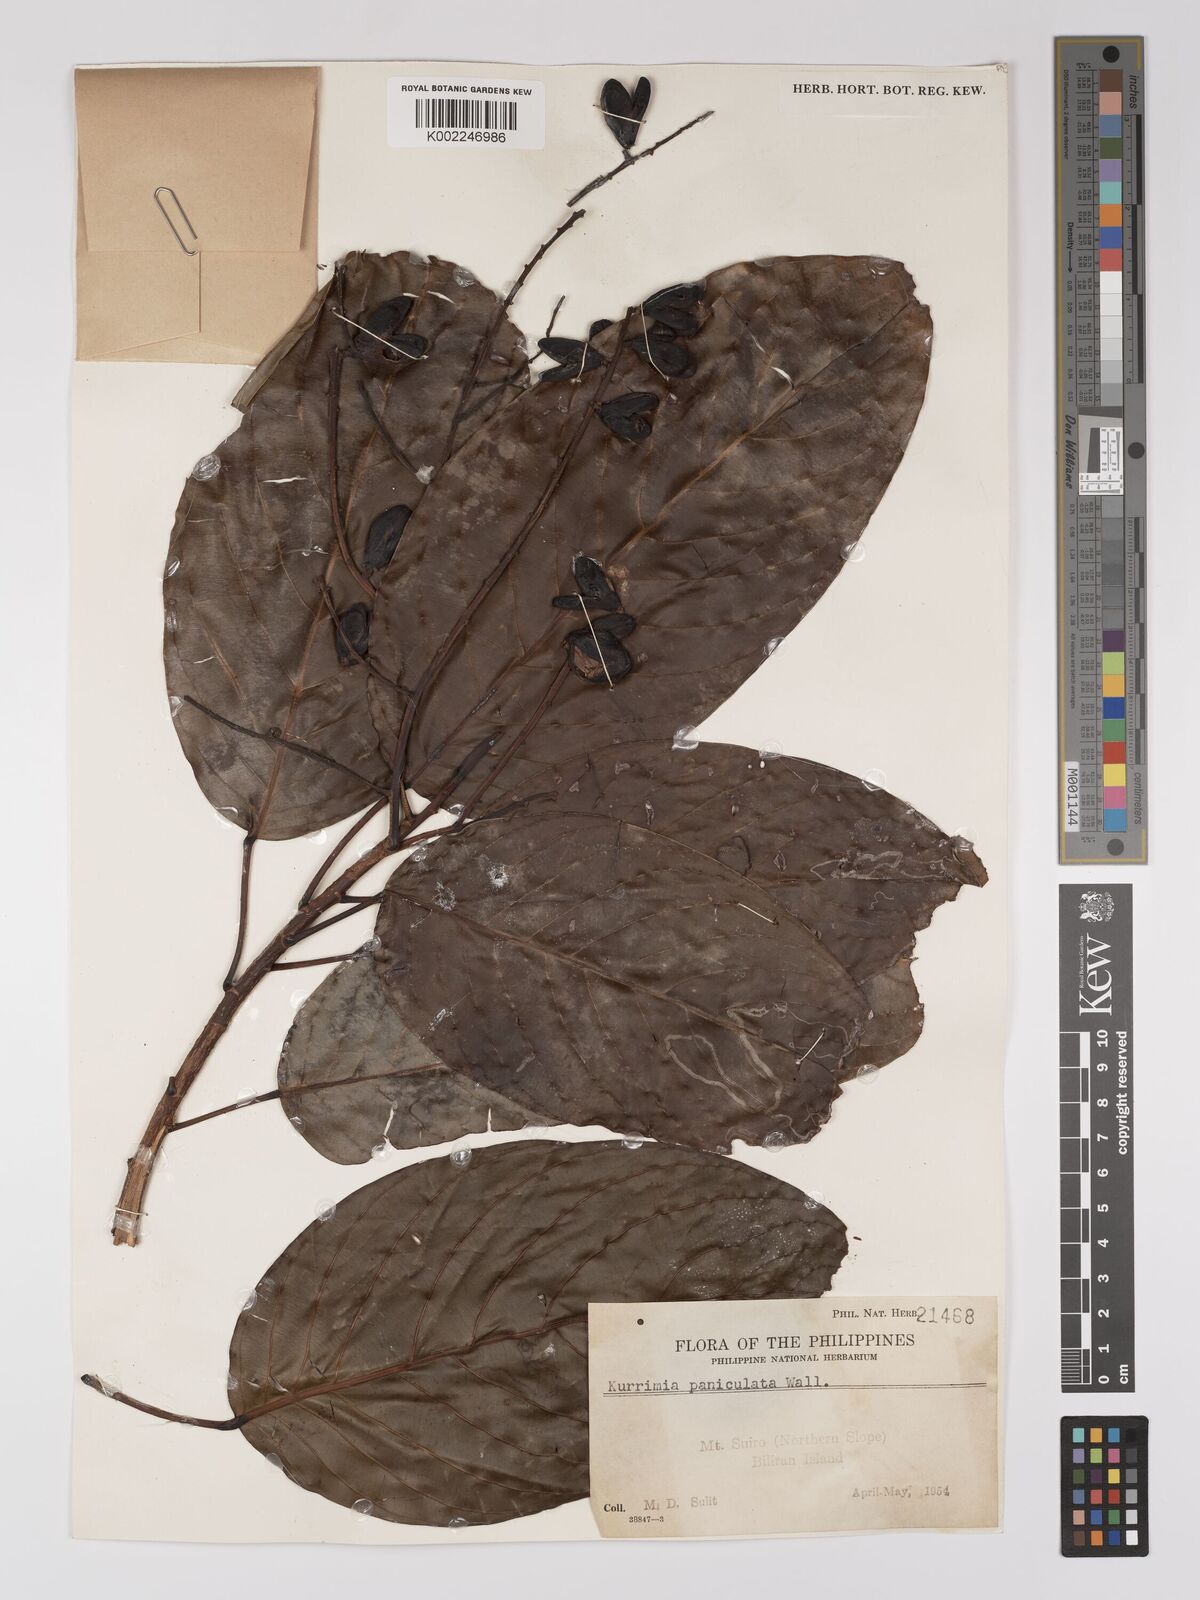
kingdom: Plantae
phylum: Tracheophyta
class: Magnoliopsida
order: Malpighiales
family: Centroplacaceae
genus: Bhesa
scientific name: Bhesa paniculata
